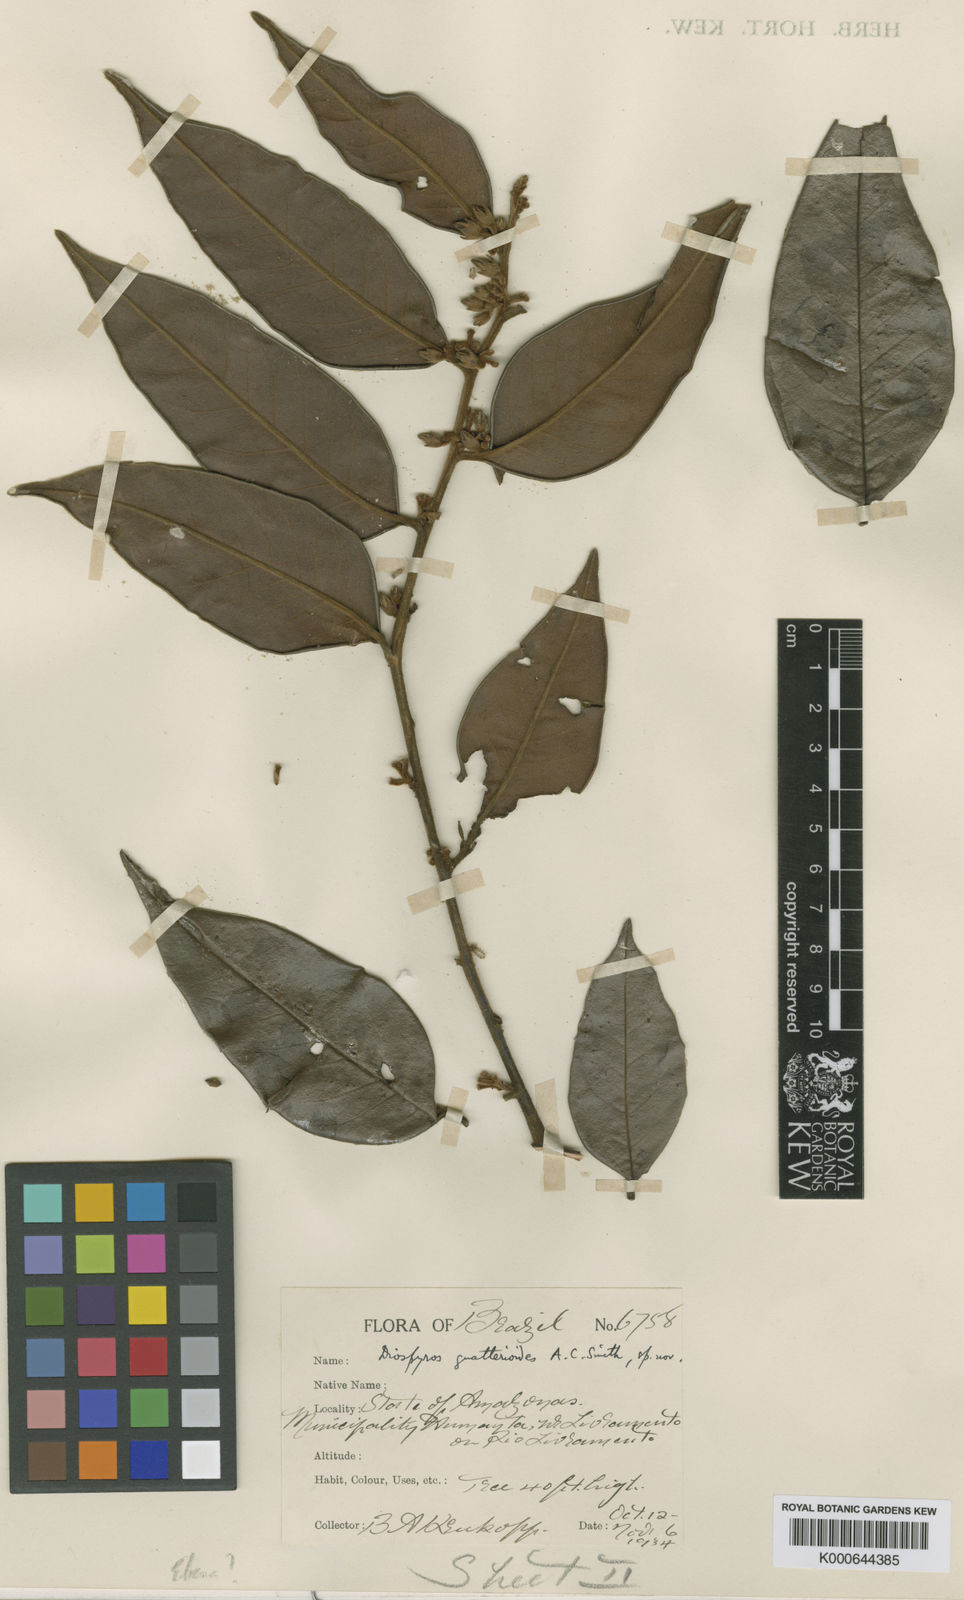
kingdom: Plantae
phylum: Tracheophyta
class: Magnoliopsida
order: Ericales
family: Ebenaceae
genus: Diospyros
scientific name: Diospyros guatterioides
